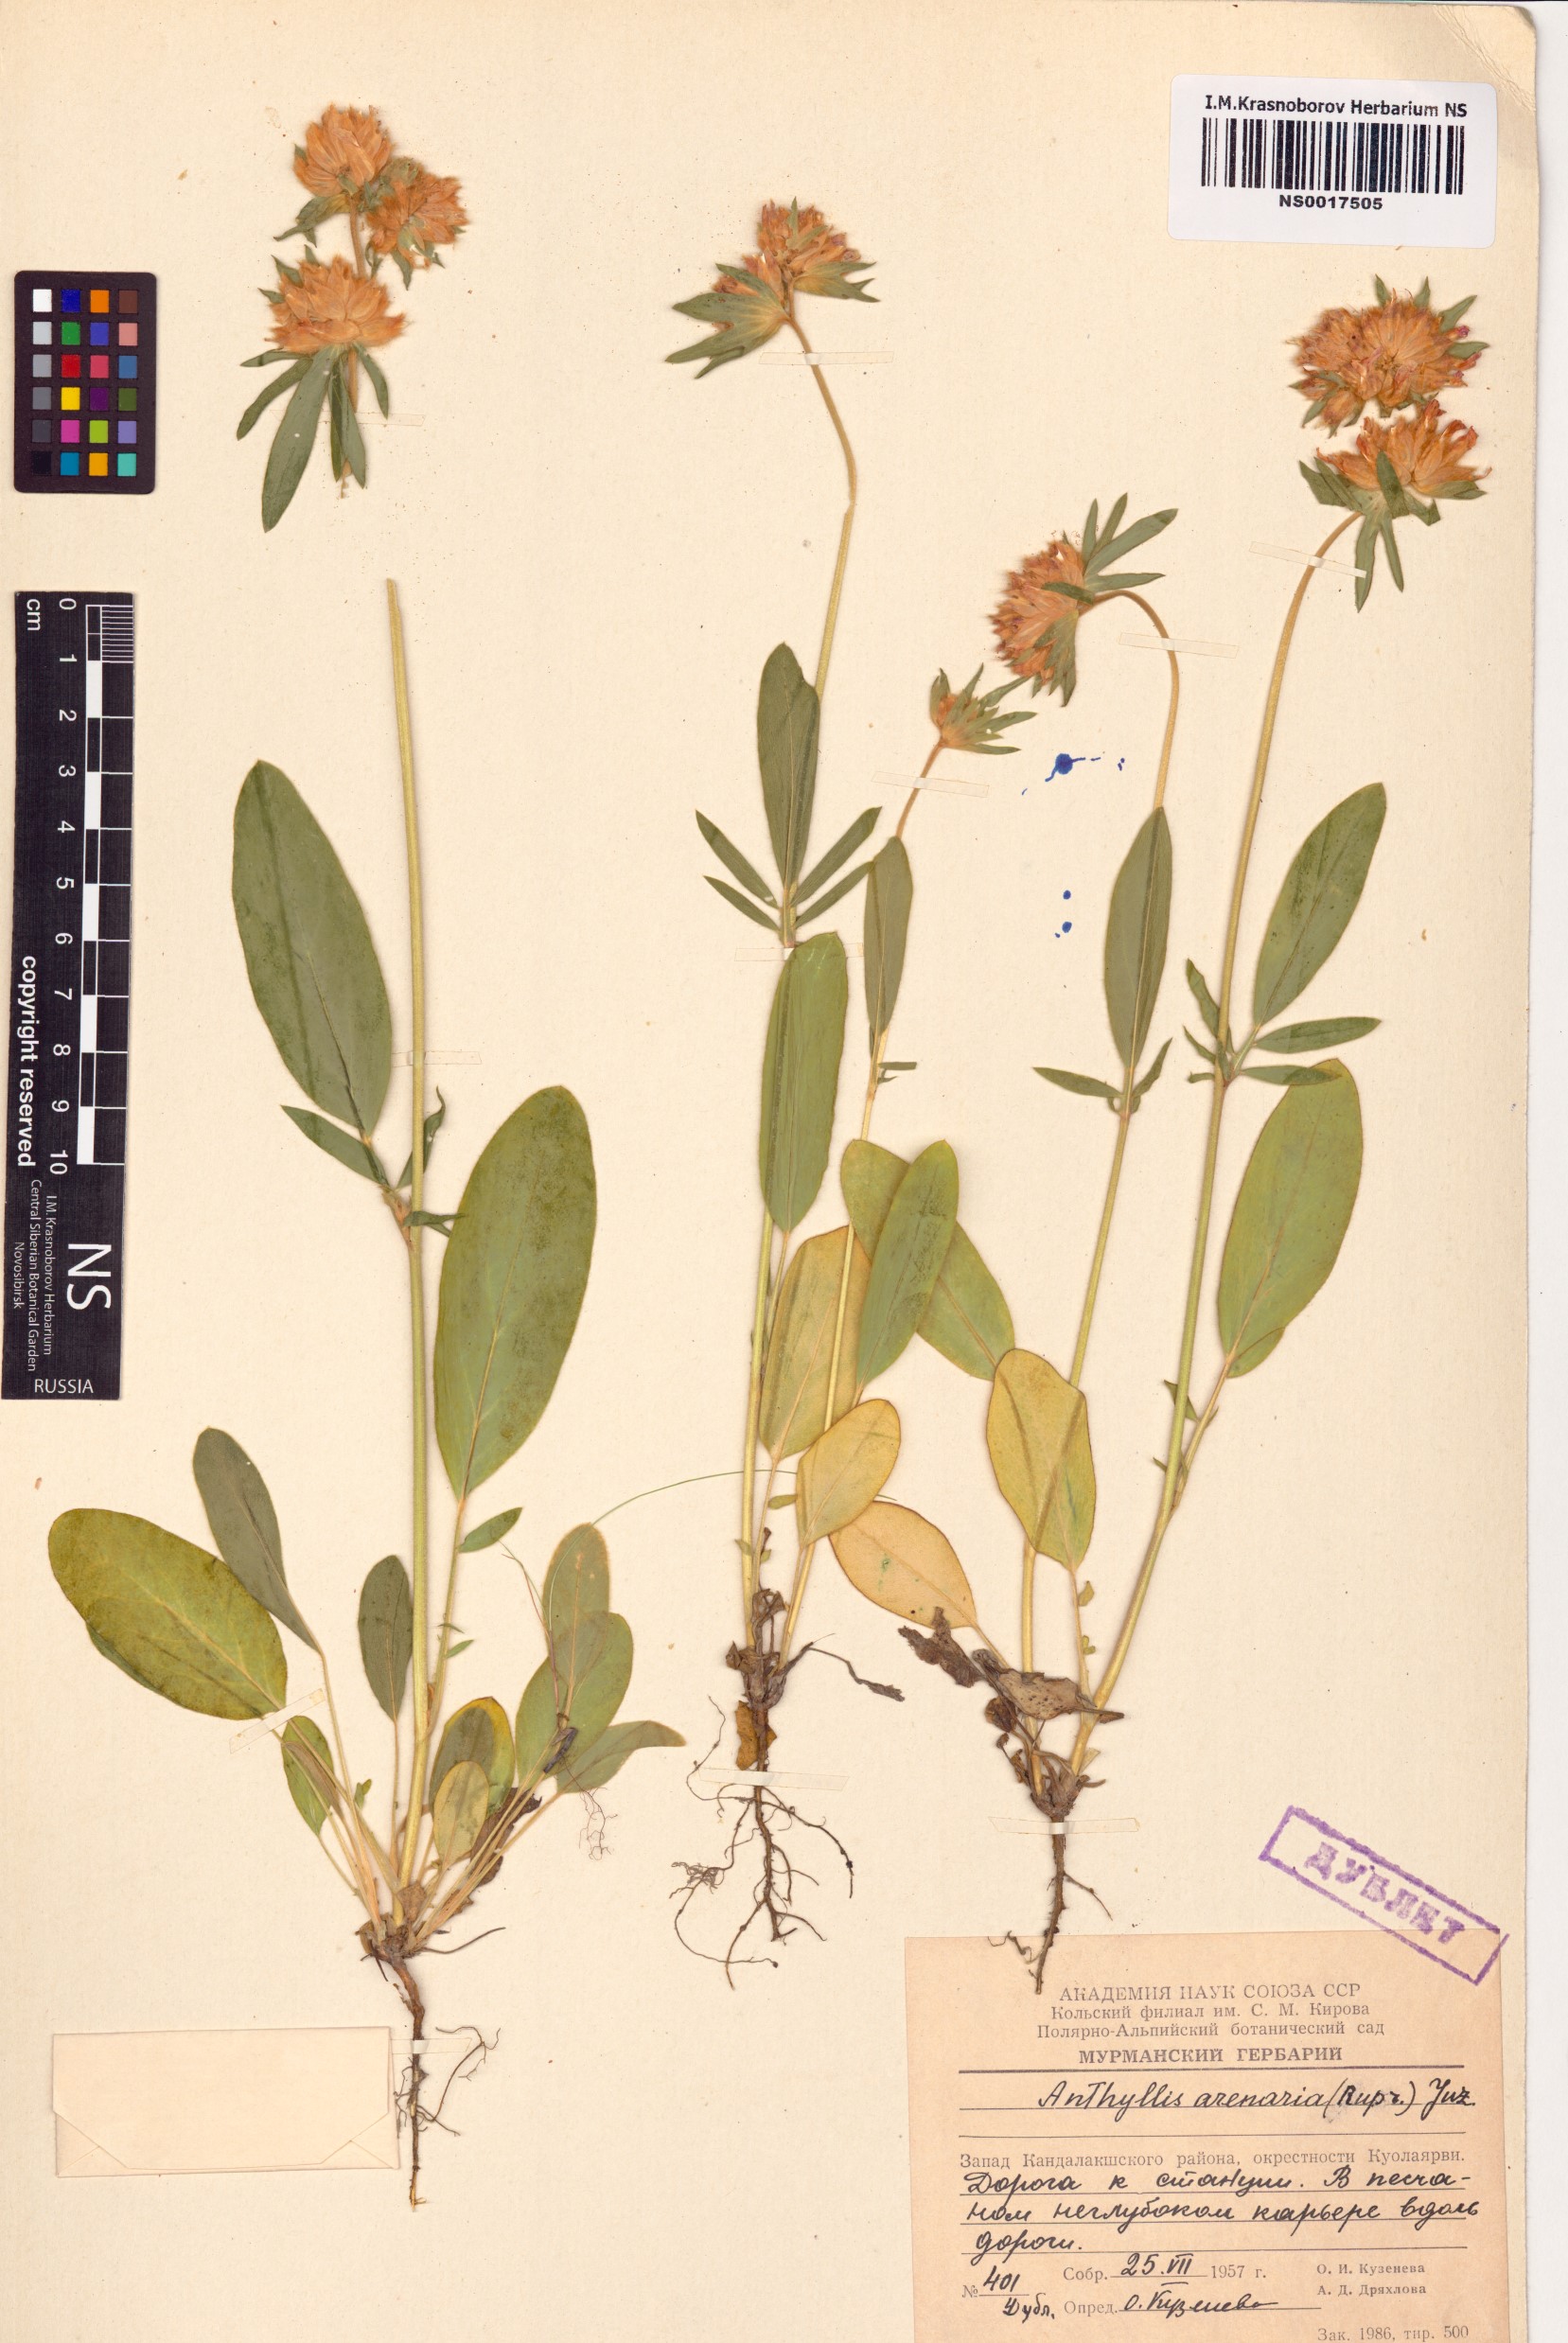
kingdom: Plantae
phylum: Tracheophyta
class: Magnoliopsida
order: Fabales
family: Fabaceae
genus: Anthyllis
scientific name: Anthyllis vulneraria
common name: Kidney vetch
